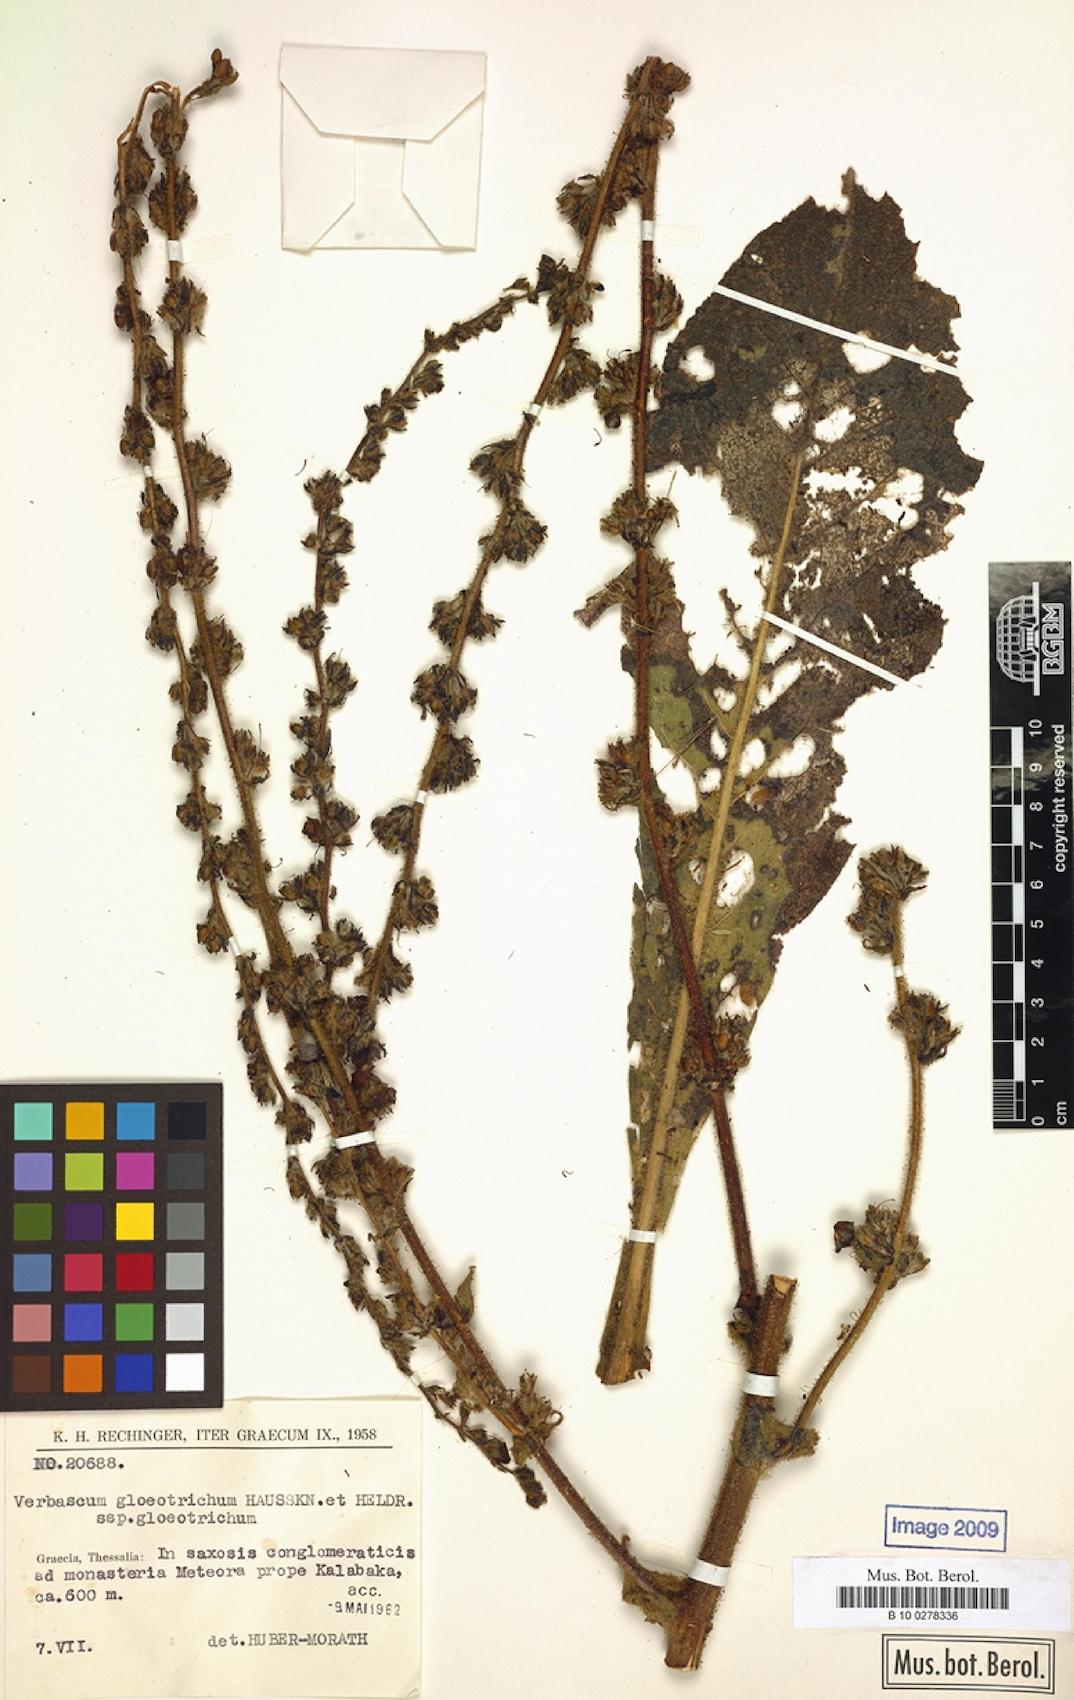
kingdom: Plantae
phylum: Tracheophyta
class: Magnoliopsida
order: Lamiales
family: Scrophulariaceae
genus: Verbascum
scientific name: Verbascum gloeotrichum
